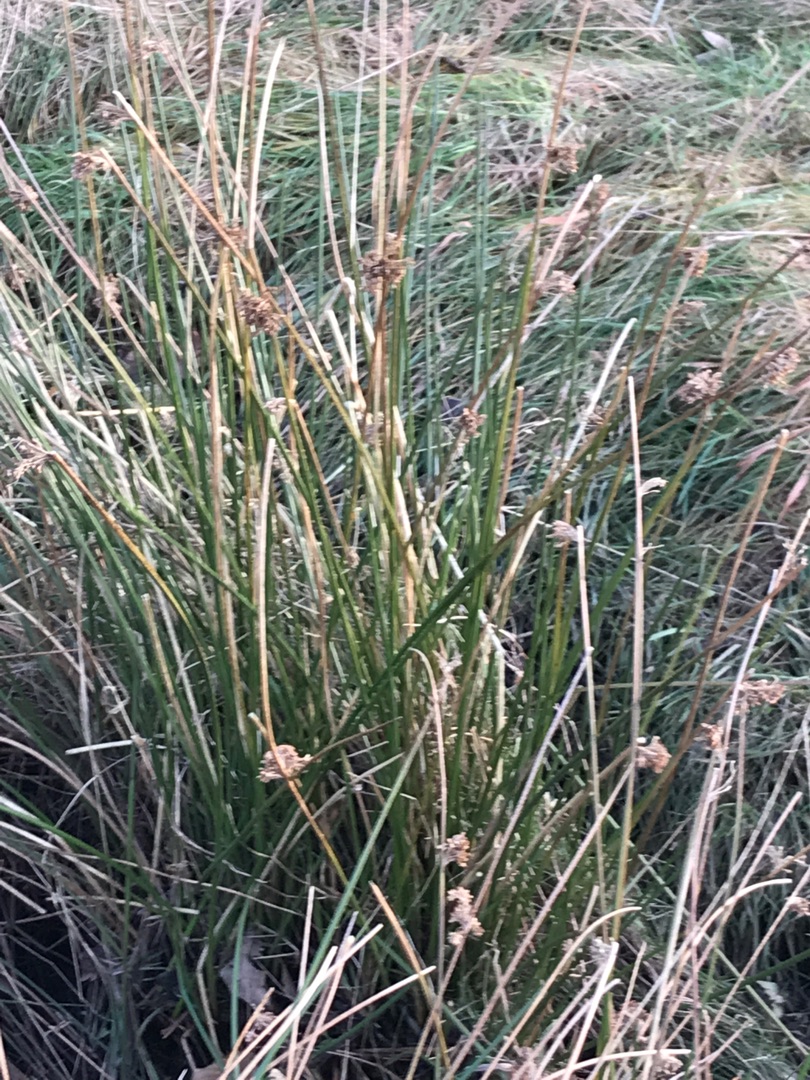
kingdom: Plantae
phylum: Tracheophyta
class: Liliopsida
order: Poales
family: Juncaceae
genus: Juncus
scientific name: Juncus effusus
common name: Lyse-siv
